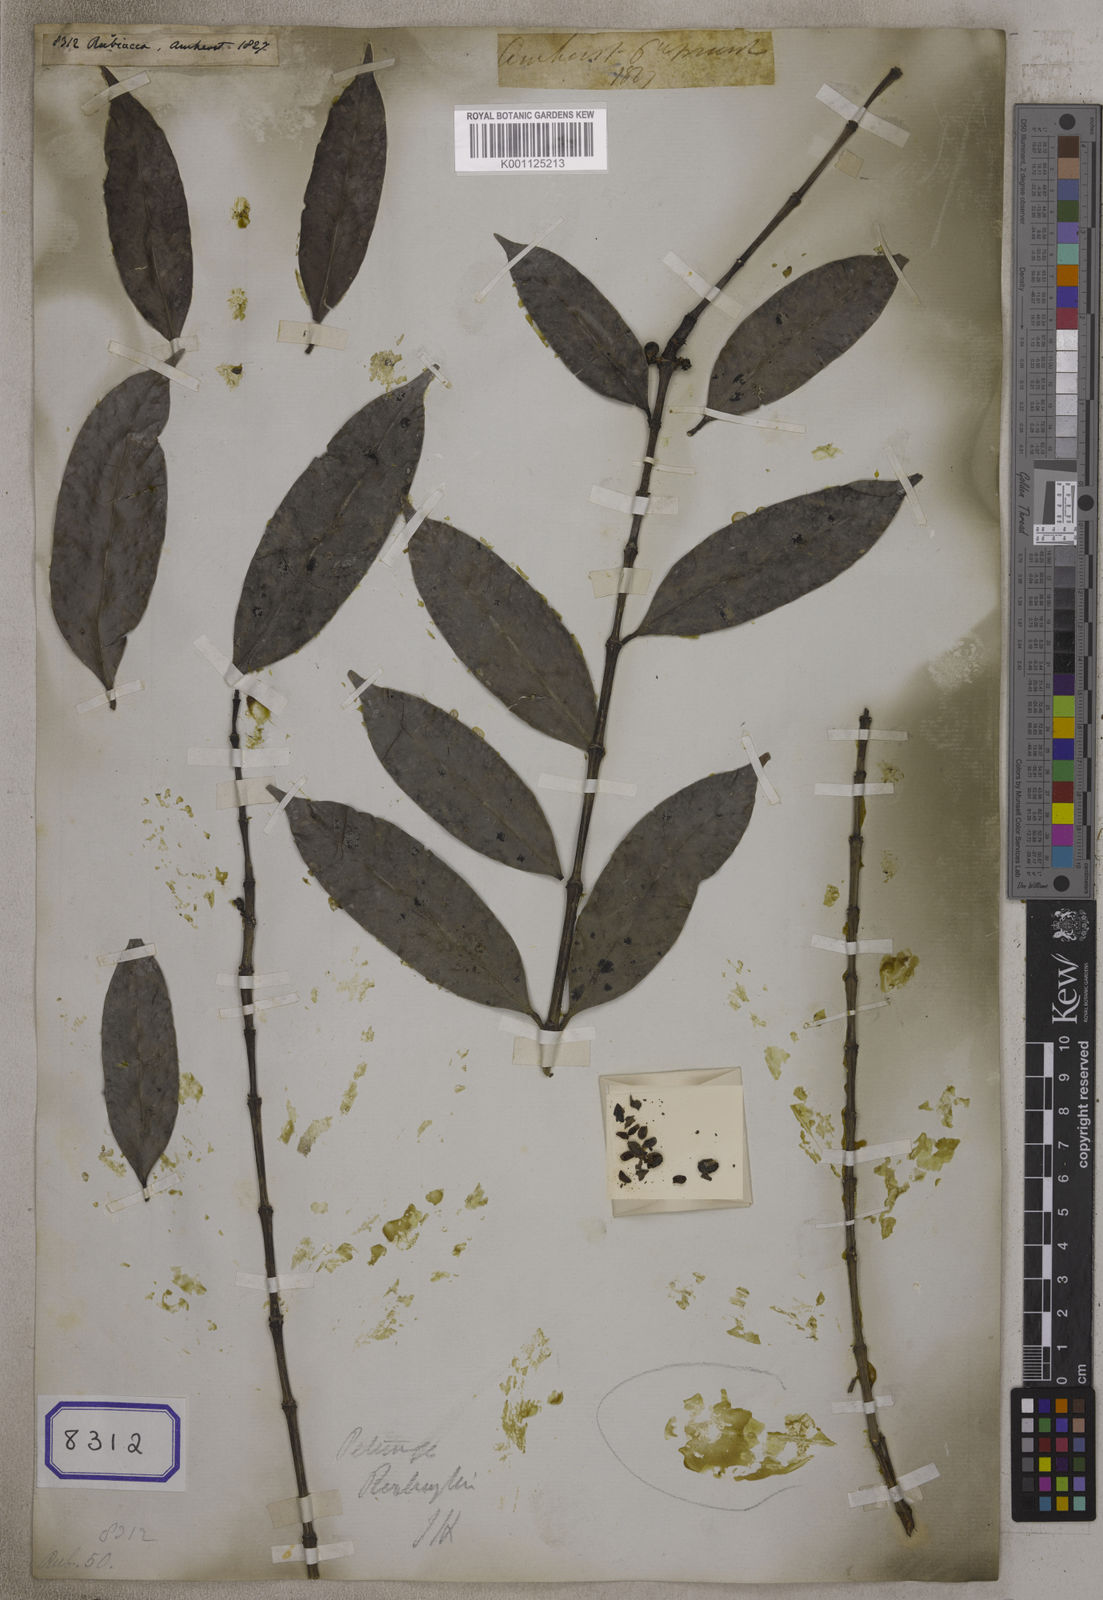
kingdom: Plantae
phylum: Tracheophyta
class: Magnoliopsida
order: Gentianales
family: Rubiaceae
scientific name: Rubiaceae
